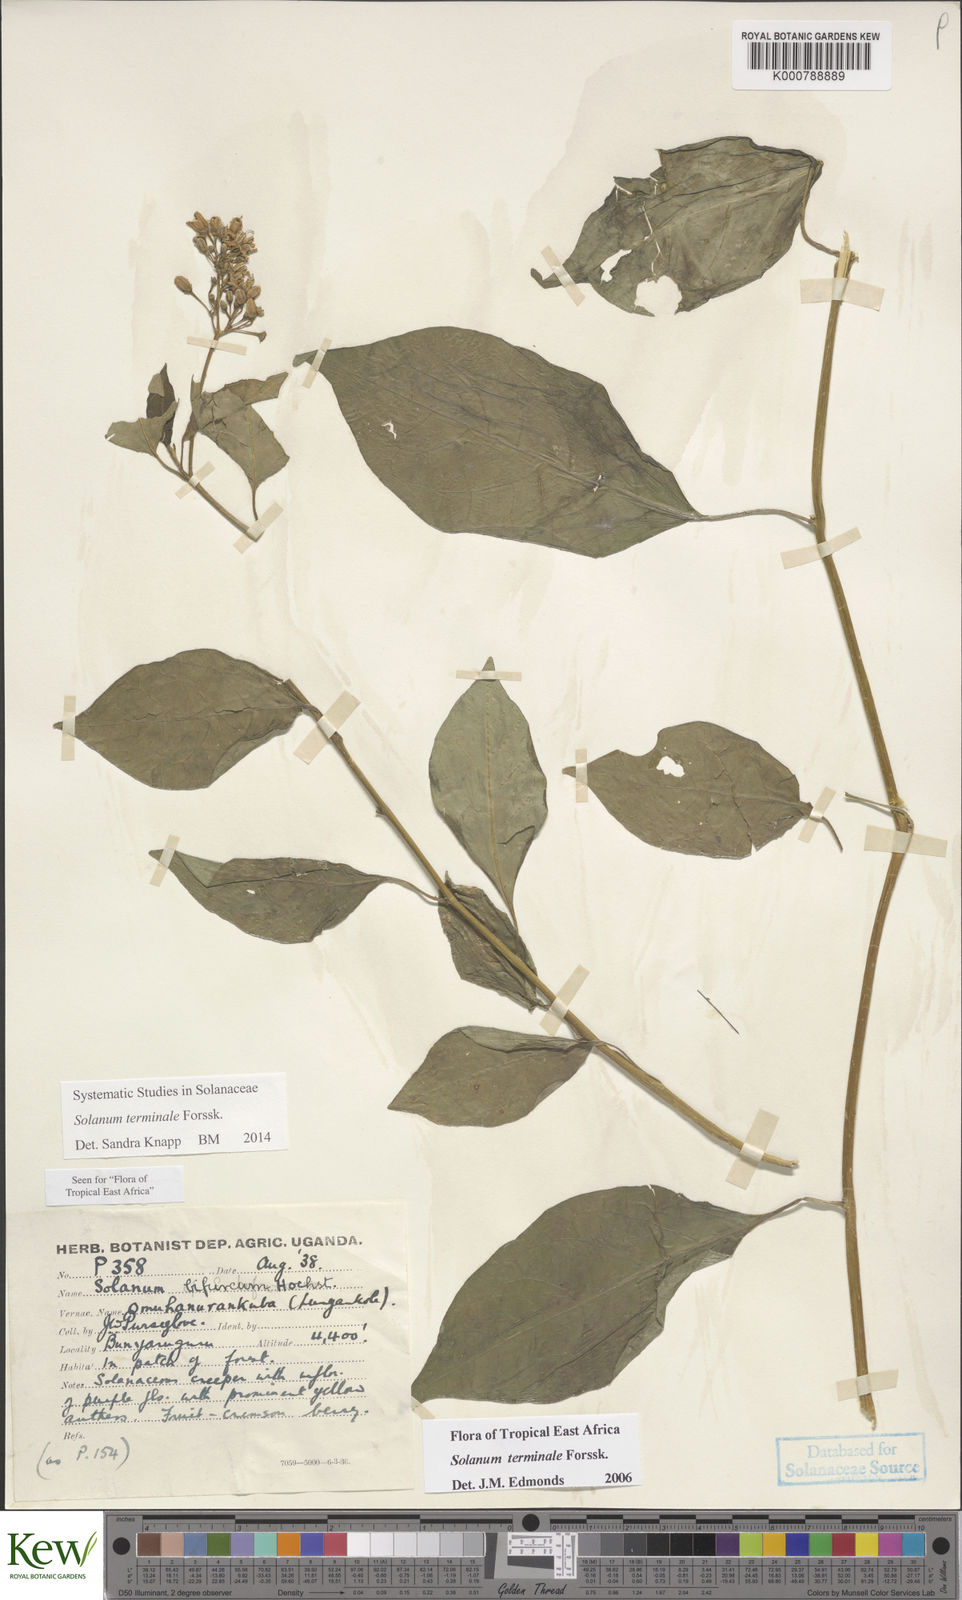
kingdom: Plantae
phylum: Tracheophyta
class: Magnoliopsida
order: Solanales
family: Solanaceae
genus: Solanum
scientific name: Solanum terminale
